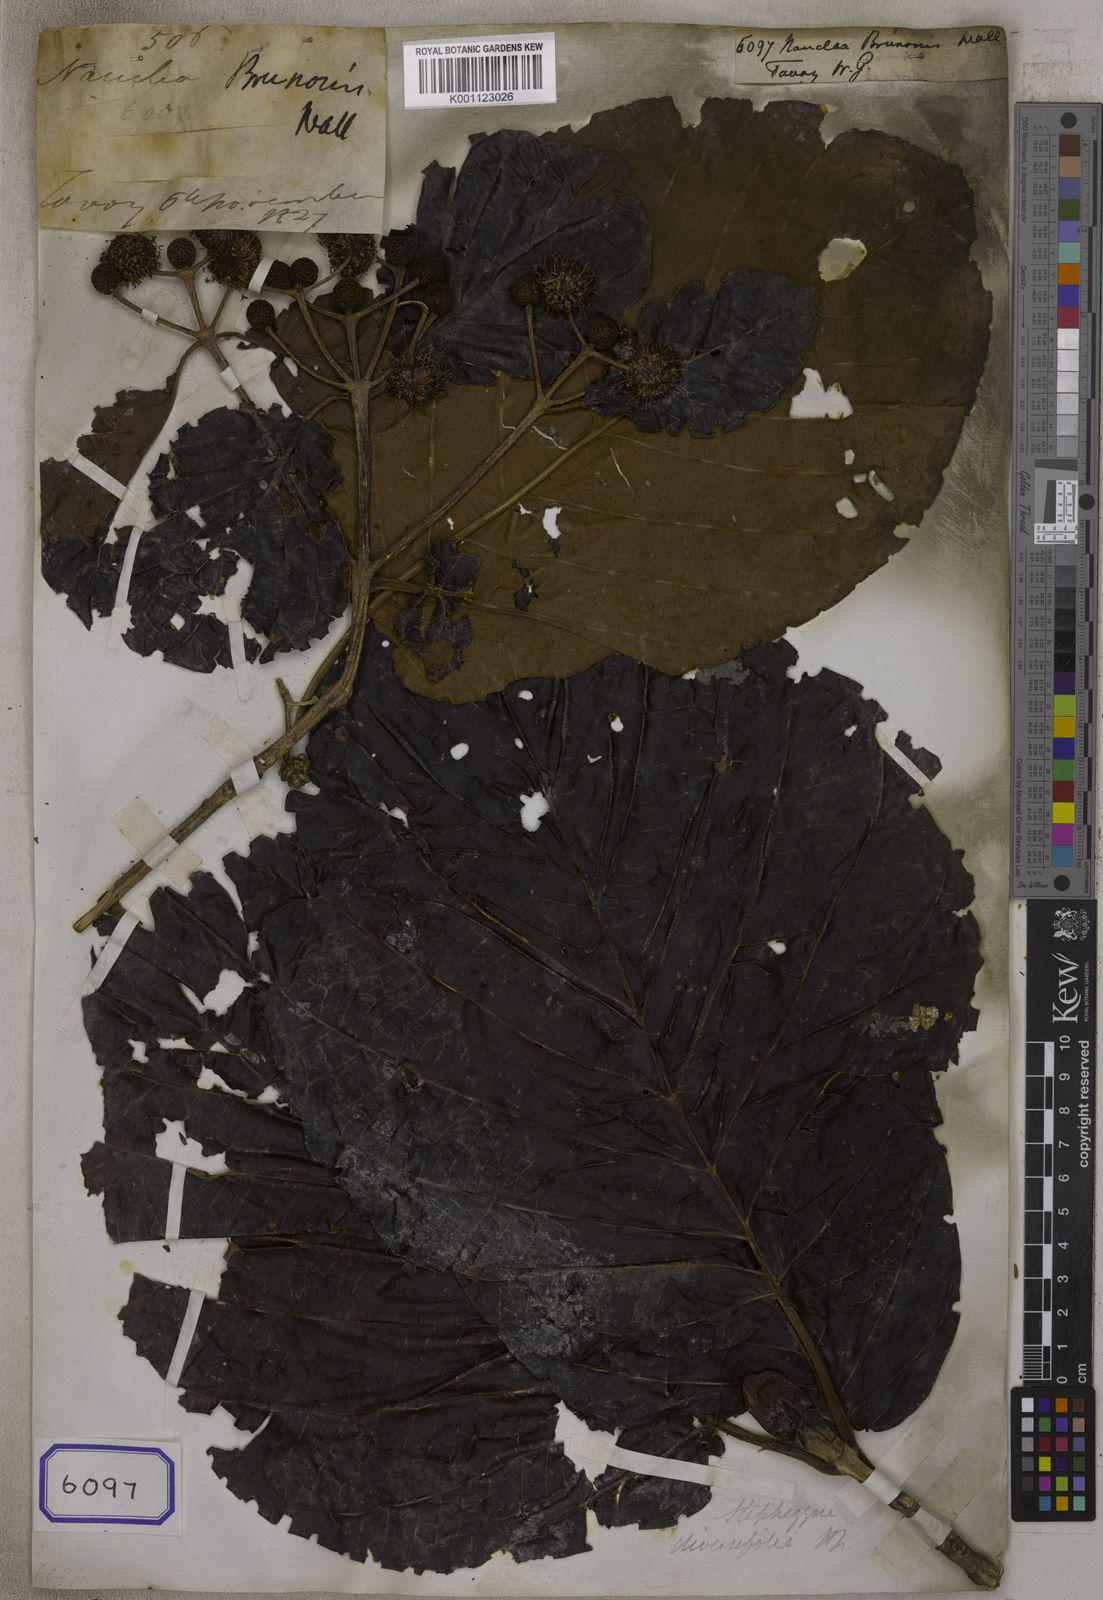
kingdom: Plantae
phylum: Tracheophyta
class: Magnoliopsida
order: Gentianales
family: Rubiaceae
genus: Nauclea
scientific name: Nauclea
